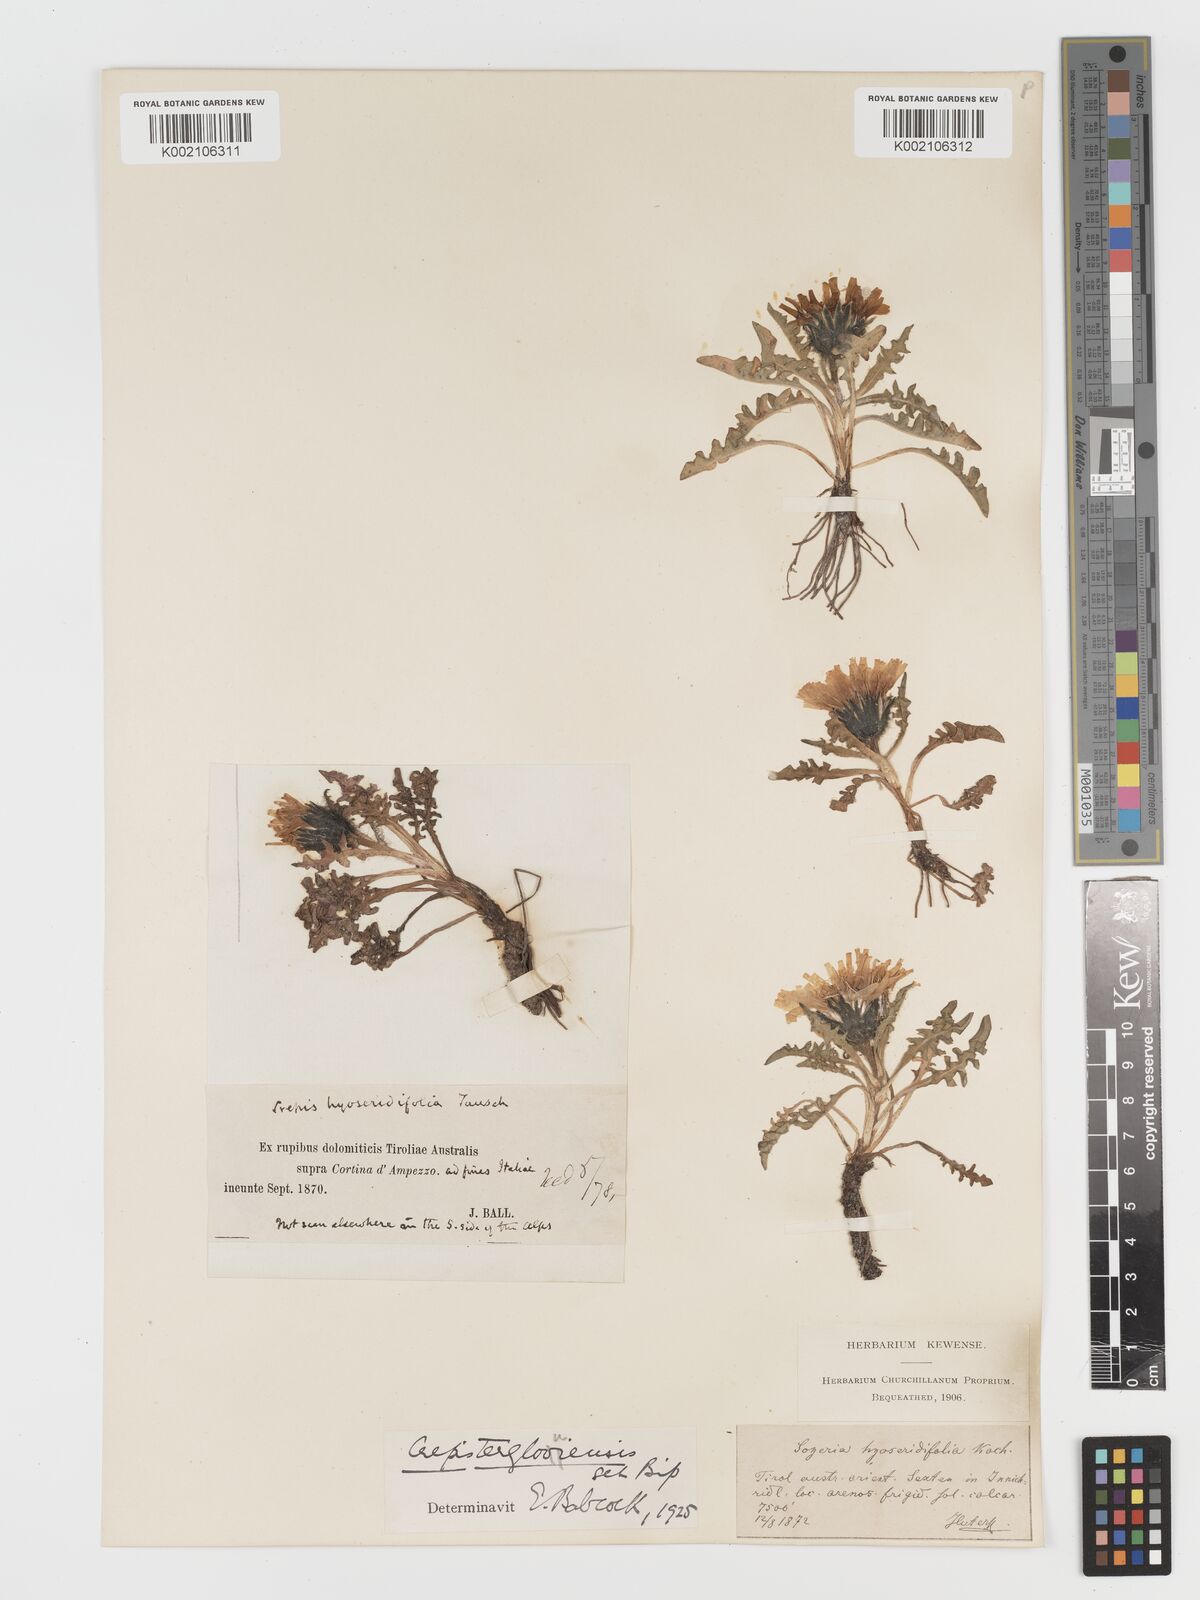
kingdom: Plantae
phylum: Tracheophyta
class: Magnoliopsida
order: Asterales
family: Asteraceae
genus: Crepis
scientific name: Crepis terglouensis
